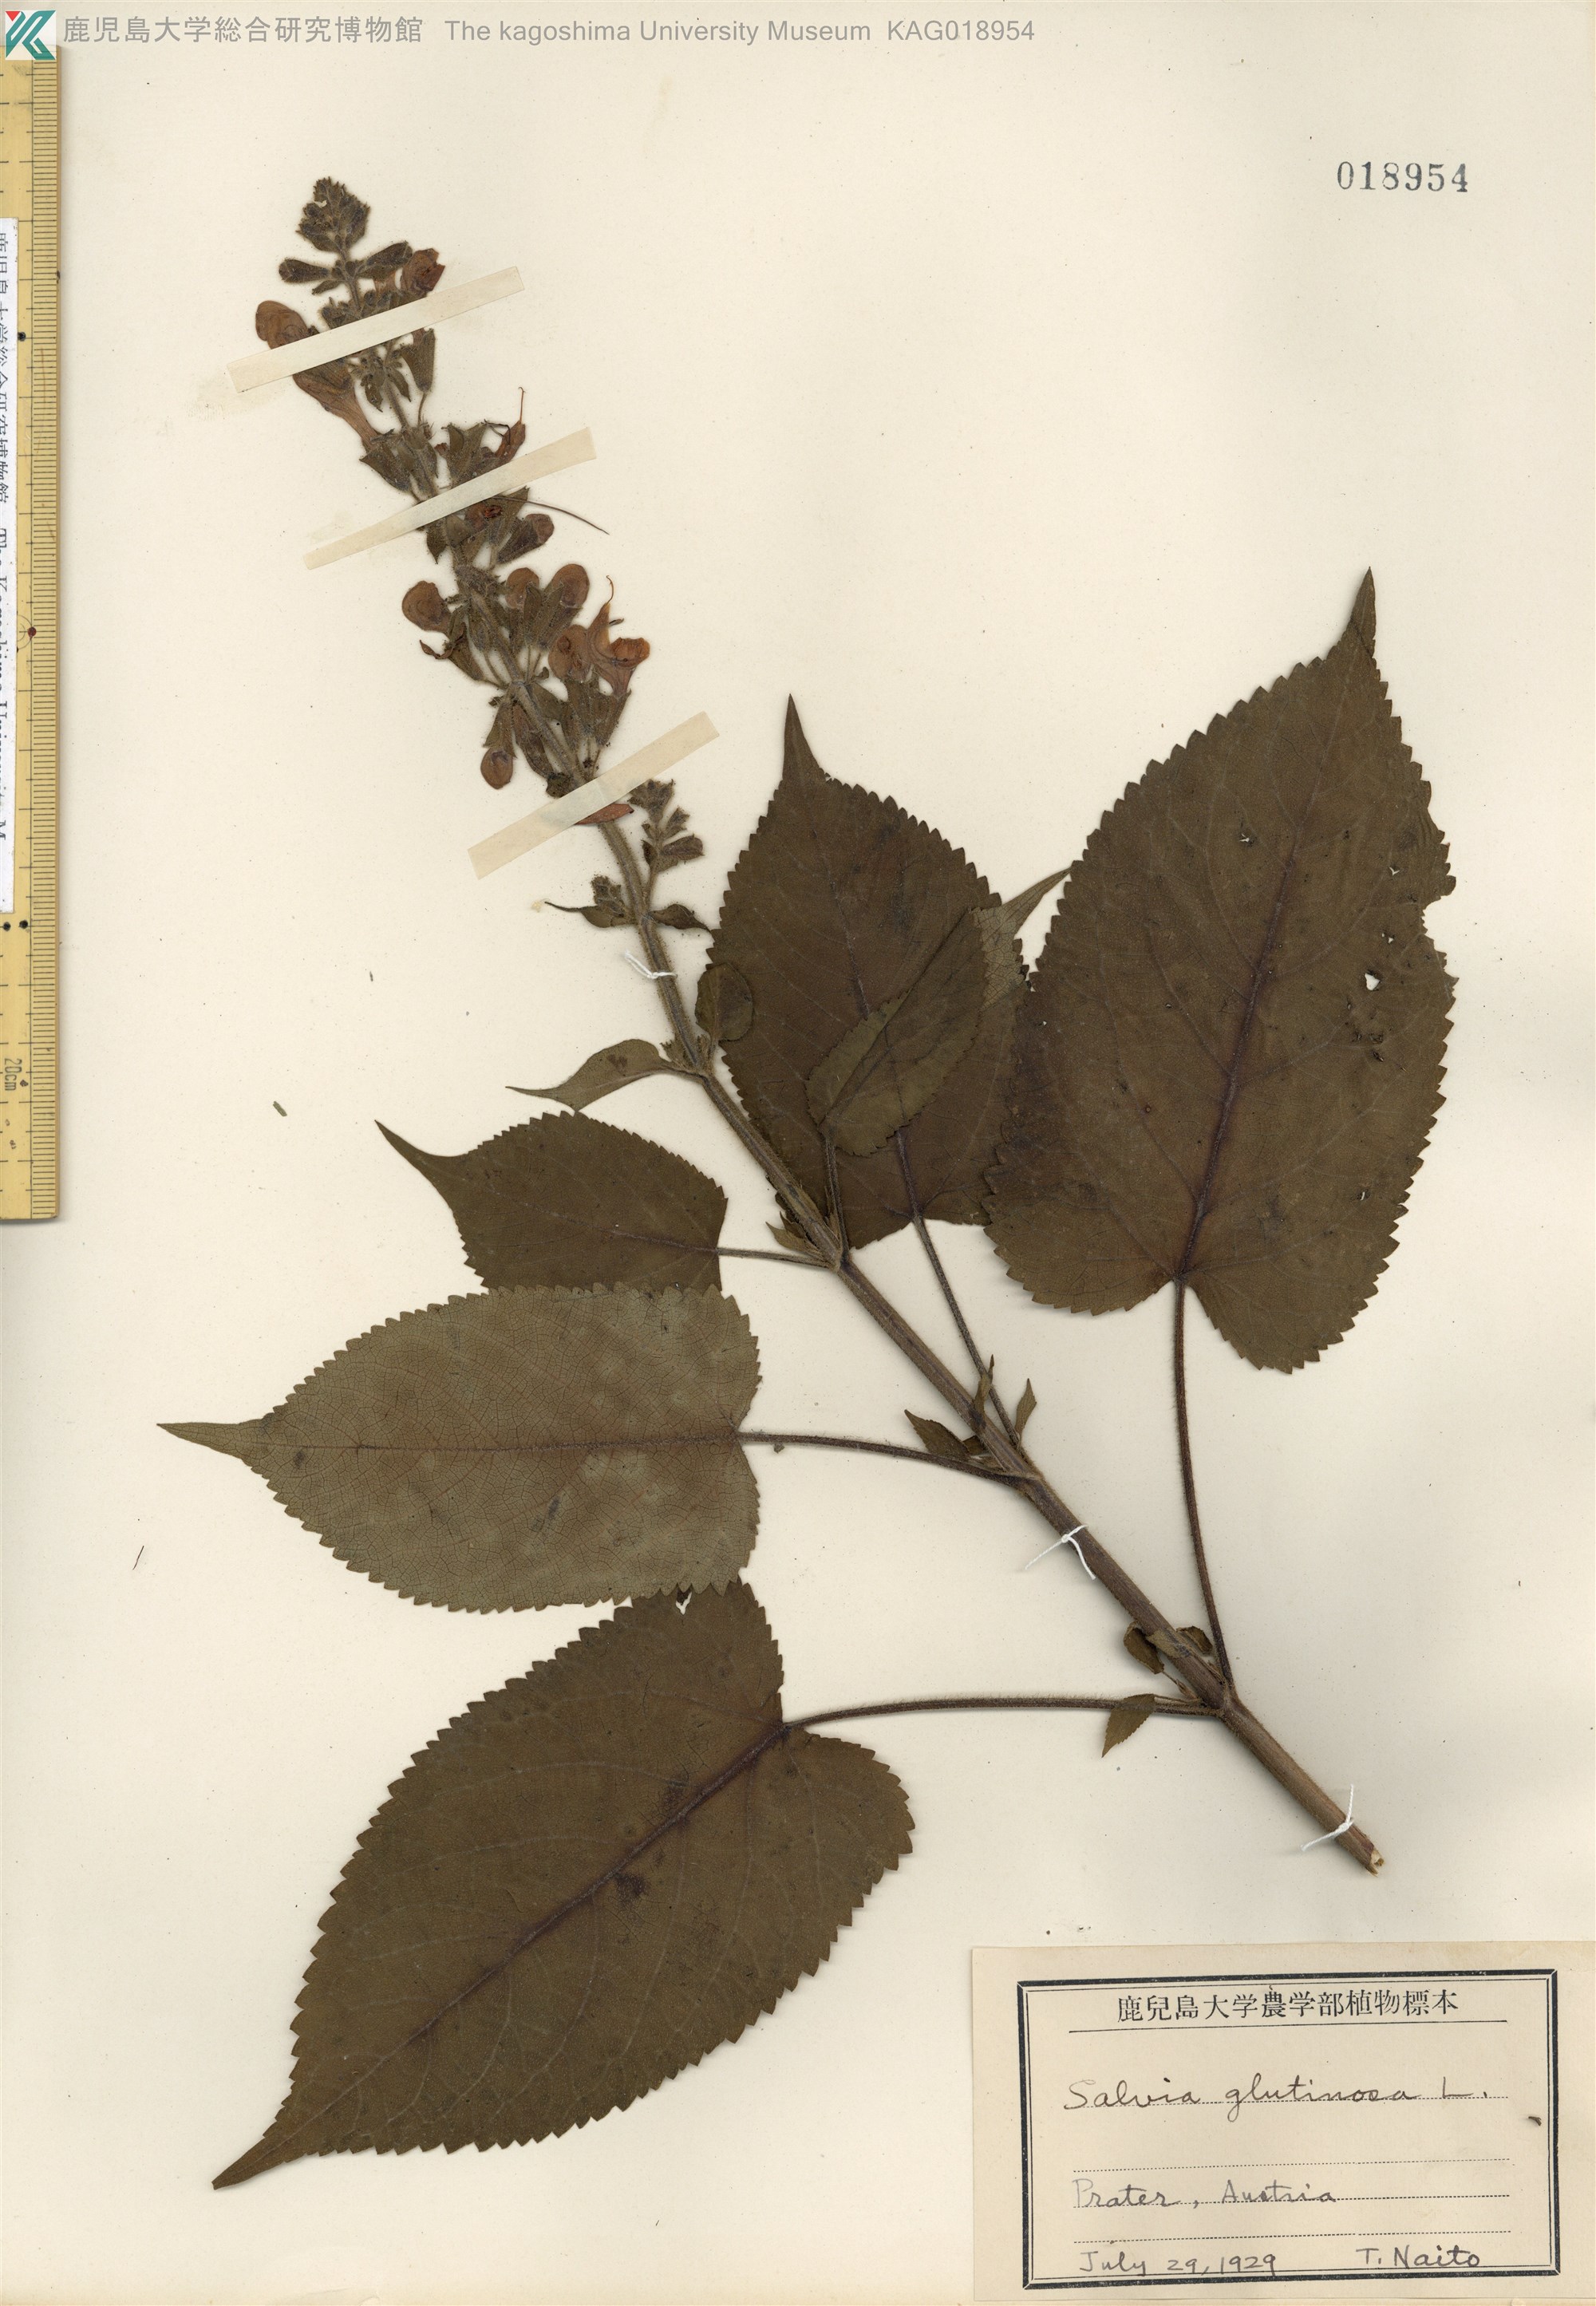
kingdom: Plantae
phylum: Tracheophyta
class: Magnoliopsida
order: Lamiales
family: Lamiaceae
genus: Salvia
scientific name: Salvia glutinosa
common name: Sticky clary
